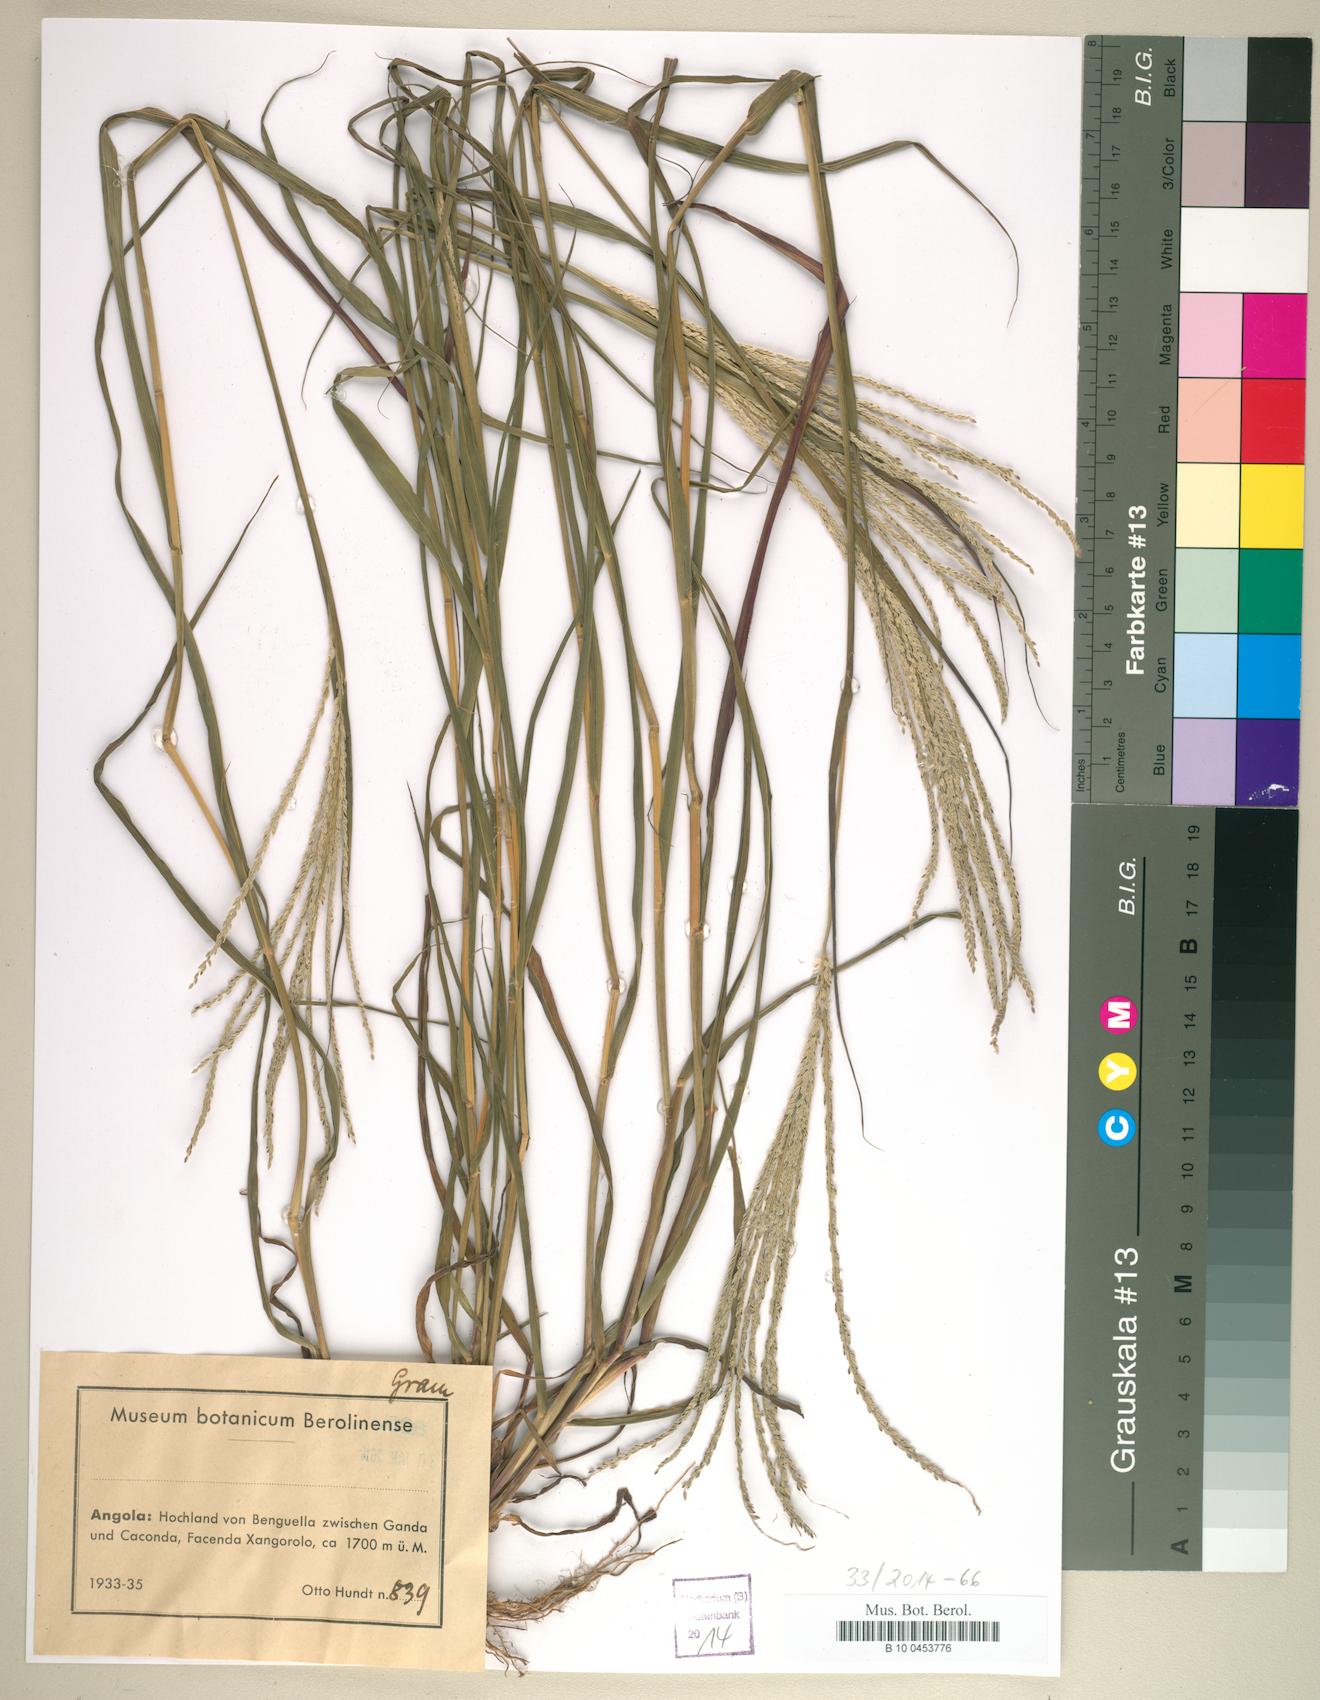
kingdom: Plantae
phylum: Tracheophyta
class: Liliopsida
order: Poales
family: Poaceae
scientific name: Poaceae
